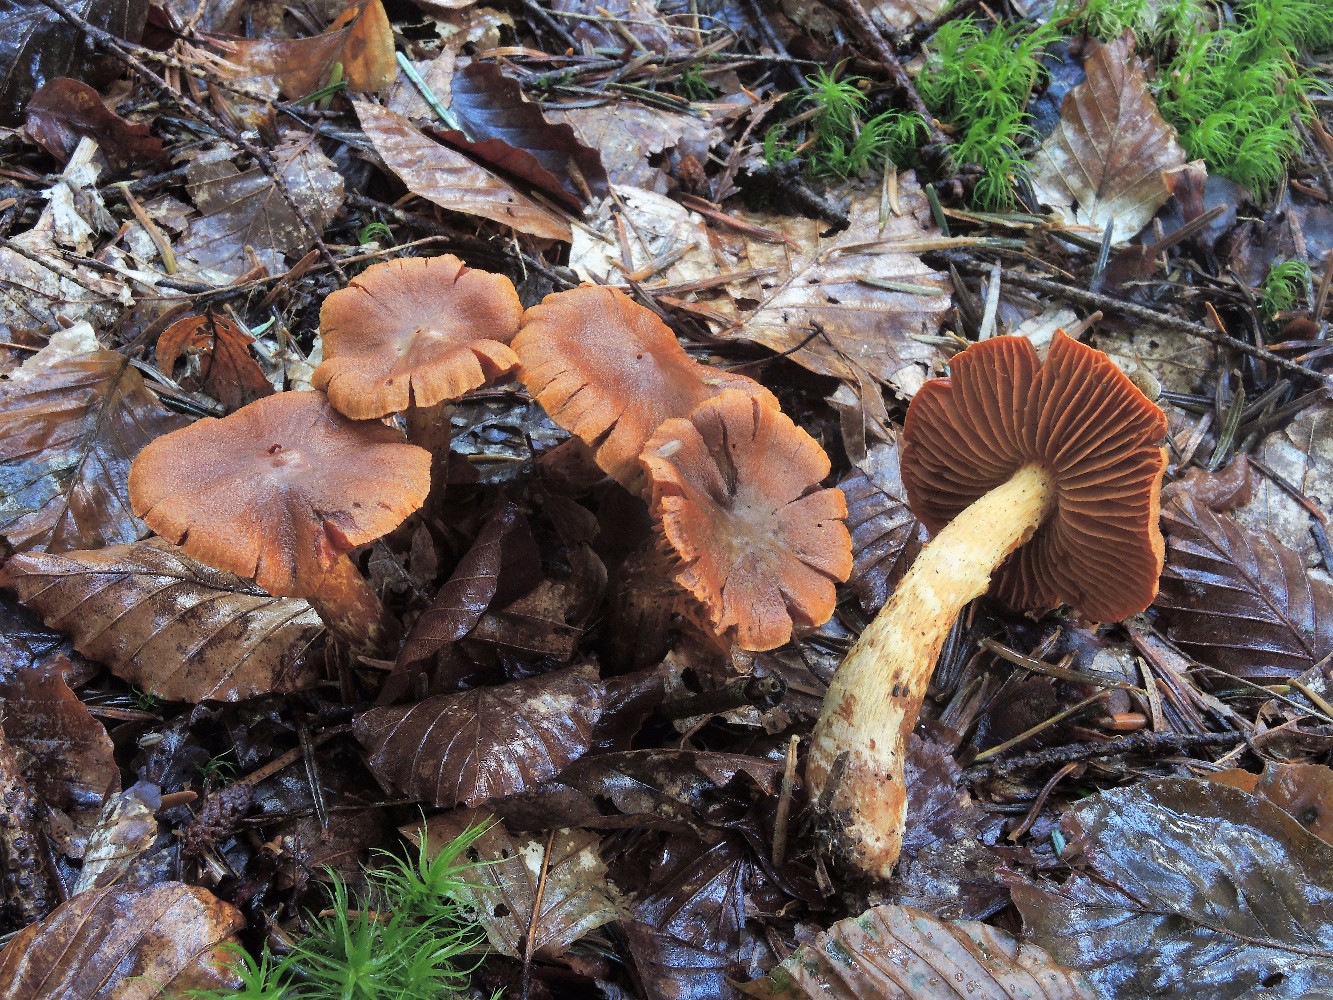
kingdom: Fungi
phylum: Basidiomycota
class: Agaricomycetes
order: Agaricales
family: Cortinariaceae
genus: Cortinarius
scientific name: Cortinarius rubellus
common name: puklet gift-slørhat
